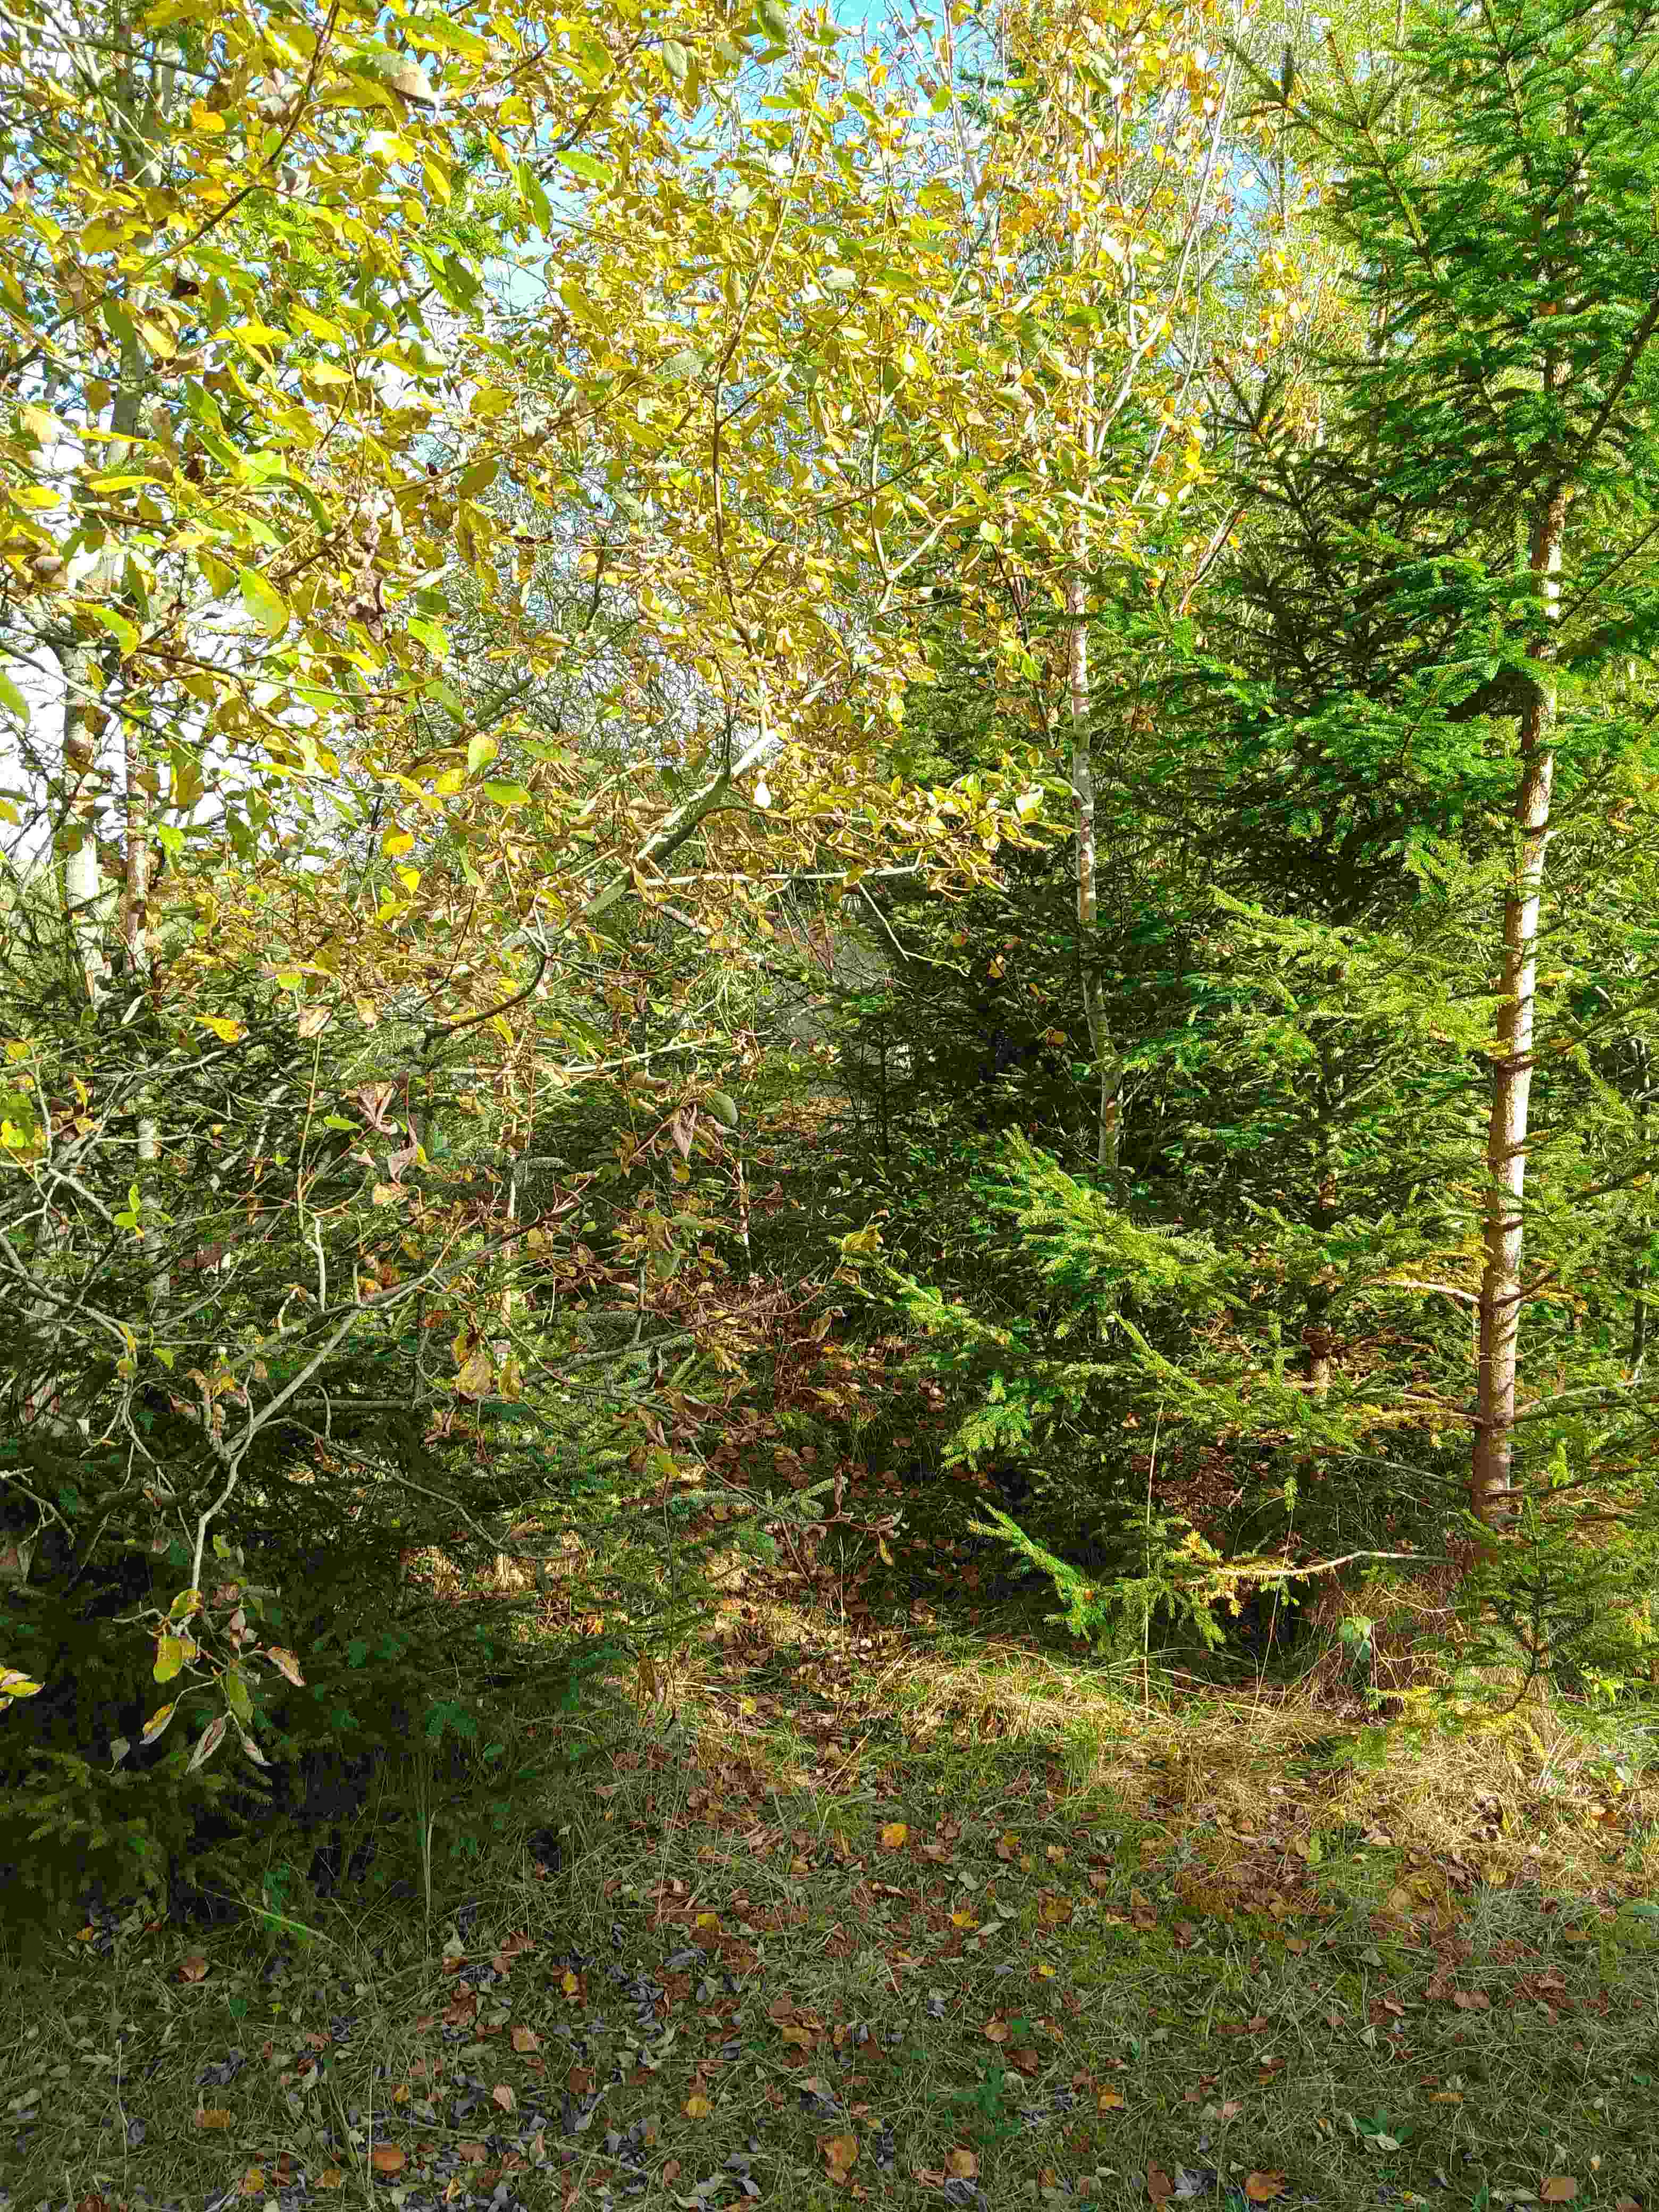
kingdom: Fungi
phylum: Basidiomycota
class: Agaricomycetes
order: Agaricales
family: Cortinariaceae
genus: Cortinarius
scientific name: Cortinarius raphanoides
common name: ræddike-slørhat
